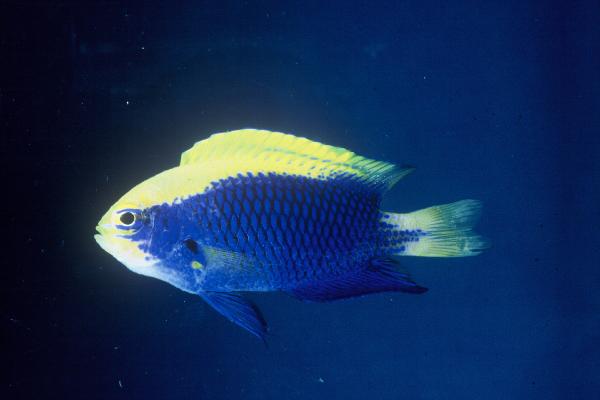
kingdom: Animalia
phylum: Chordata
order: Perciformes
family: Pomacentridae
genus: Chrysiptera
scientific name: Chrysiptera starcki
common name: Damselfish
